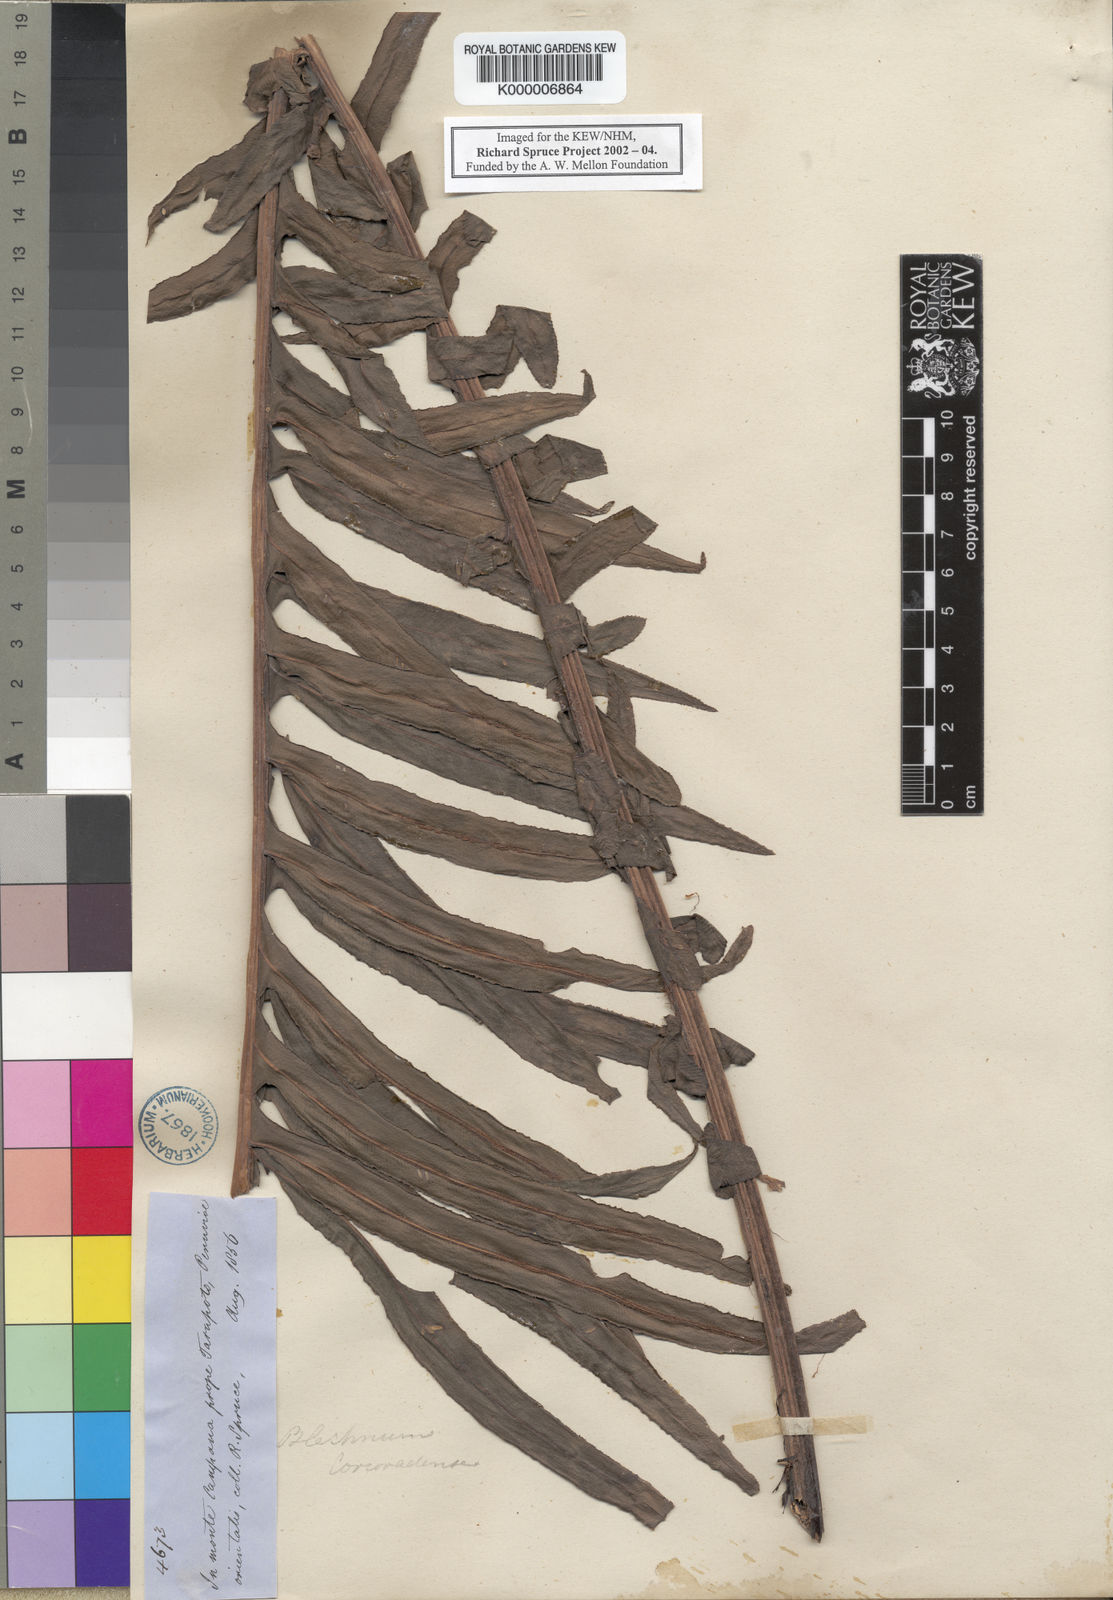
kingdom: Plantae
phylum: Tracheophyta
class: Polypodiopsida
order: Polypodiales
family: Blechnaceae
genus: Blechnum
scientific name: Blechnum
